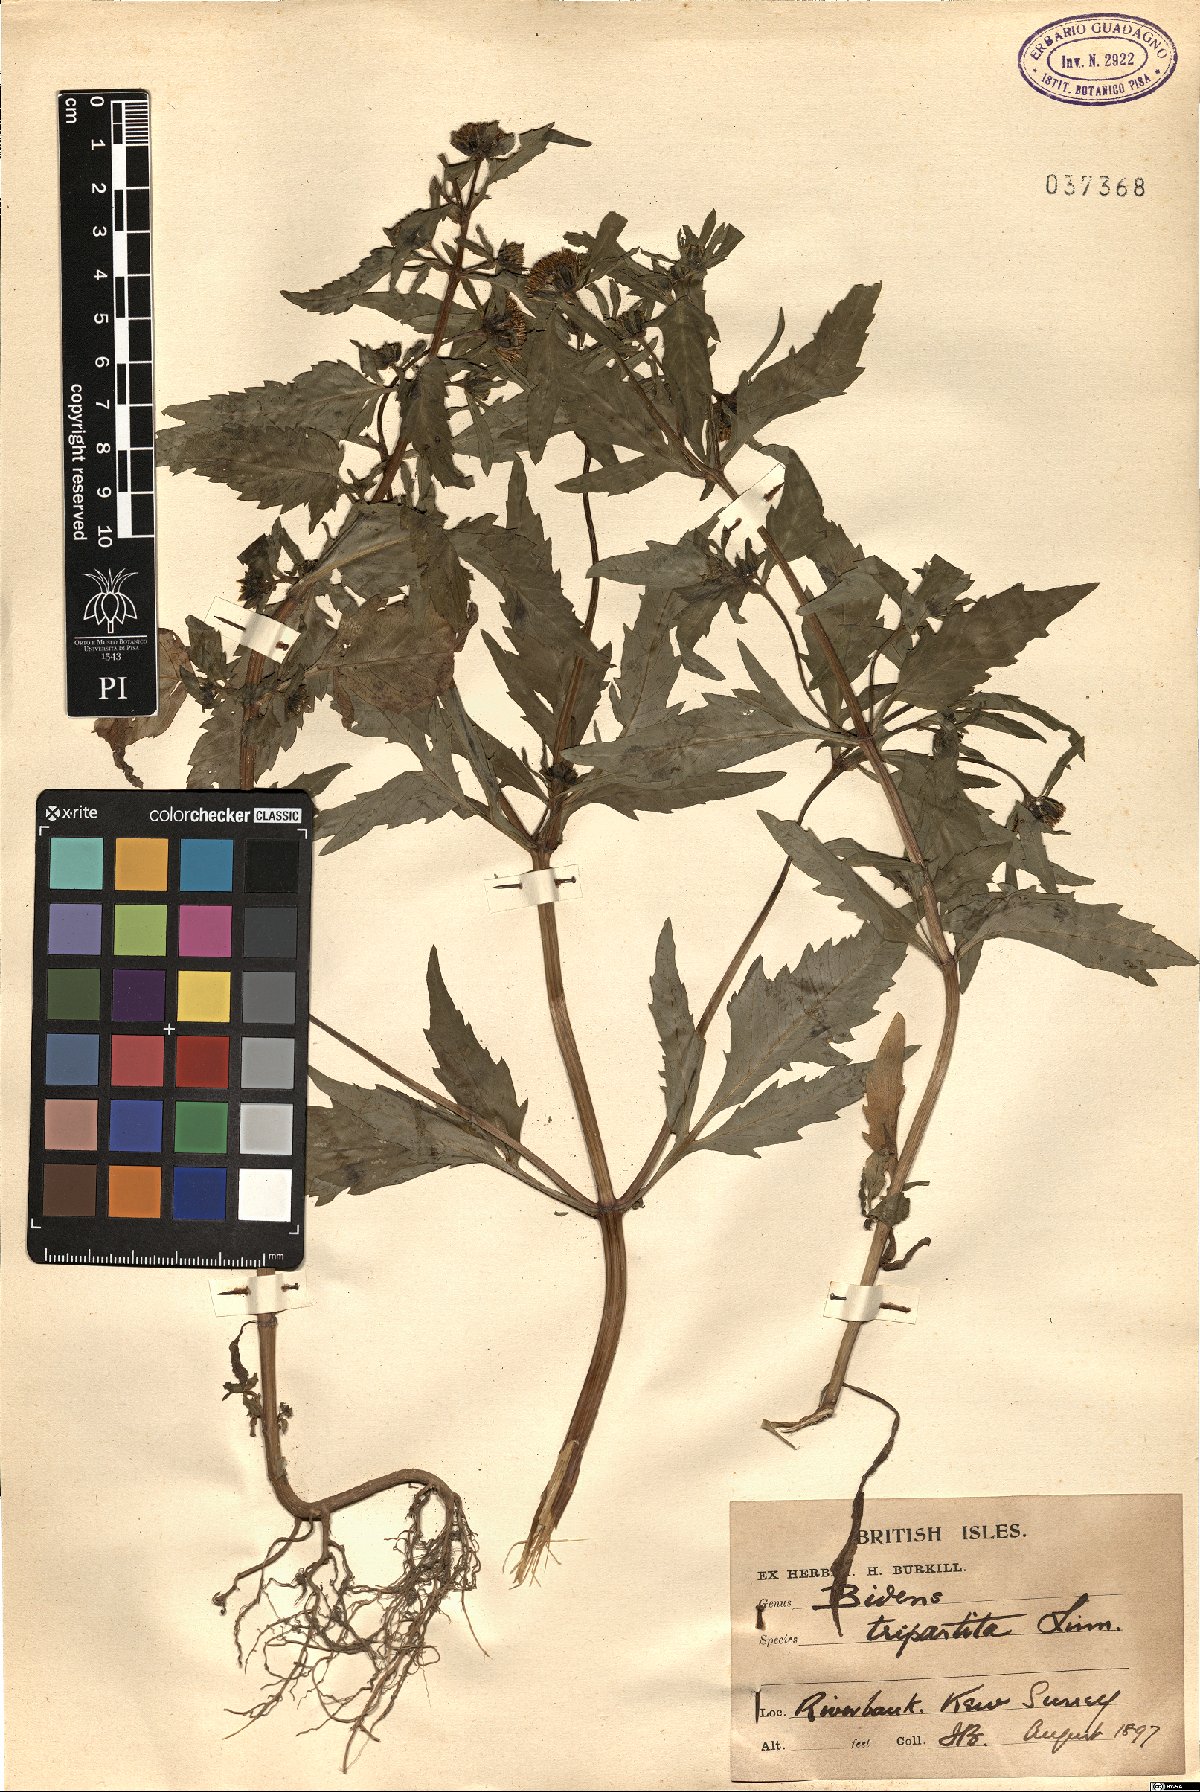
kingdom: Plantae
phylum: Tracheophyta
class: Magnoliopsida
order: Asterales
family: Asteraceae
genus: Bidens
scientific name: Bidens tripartita
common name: Trifid bur-marigold
